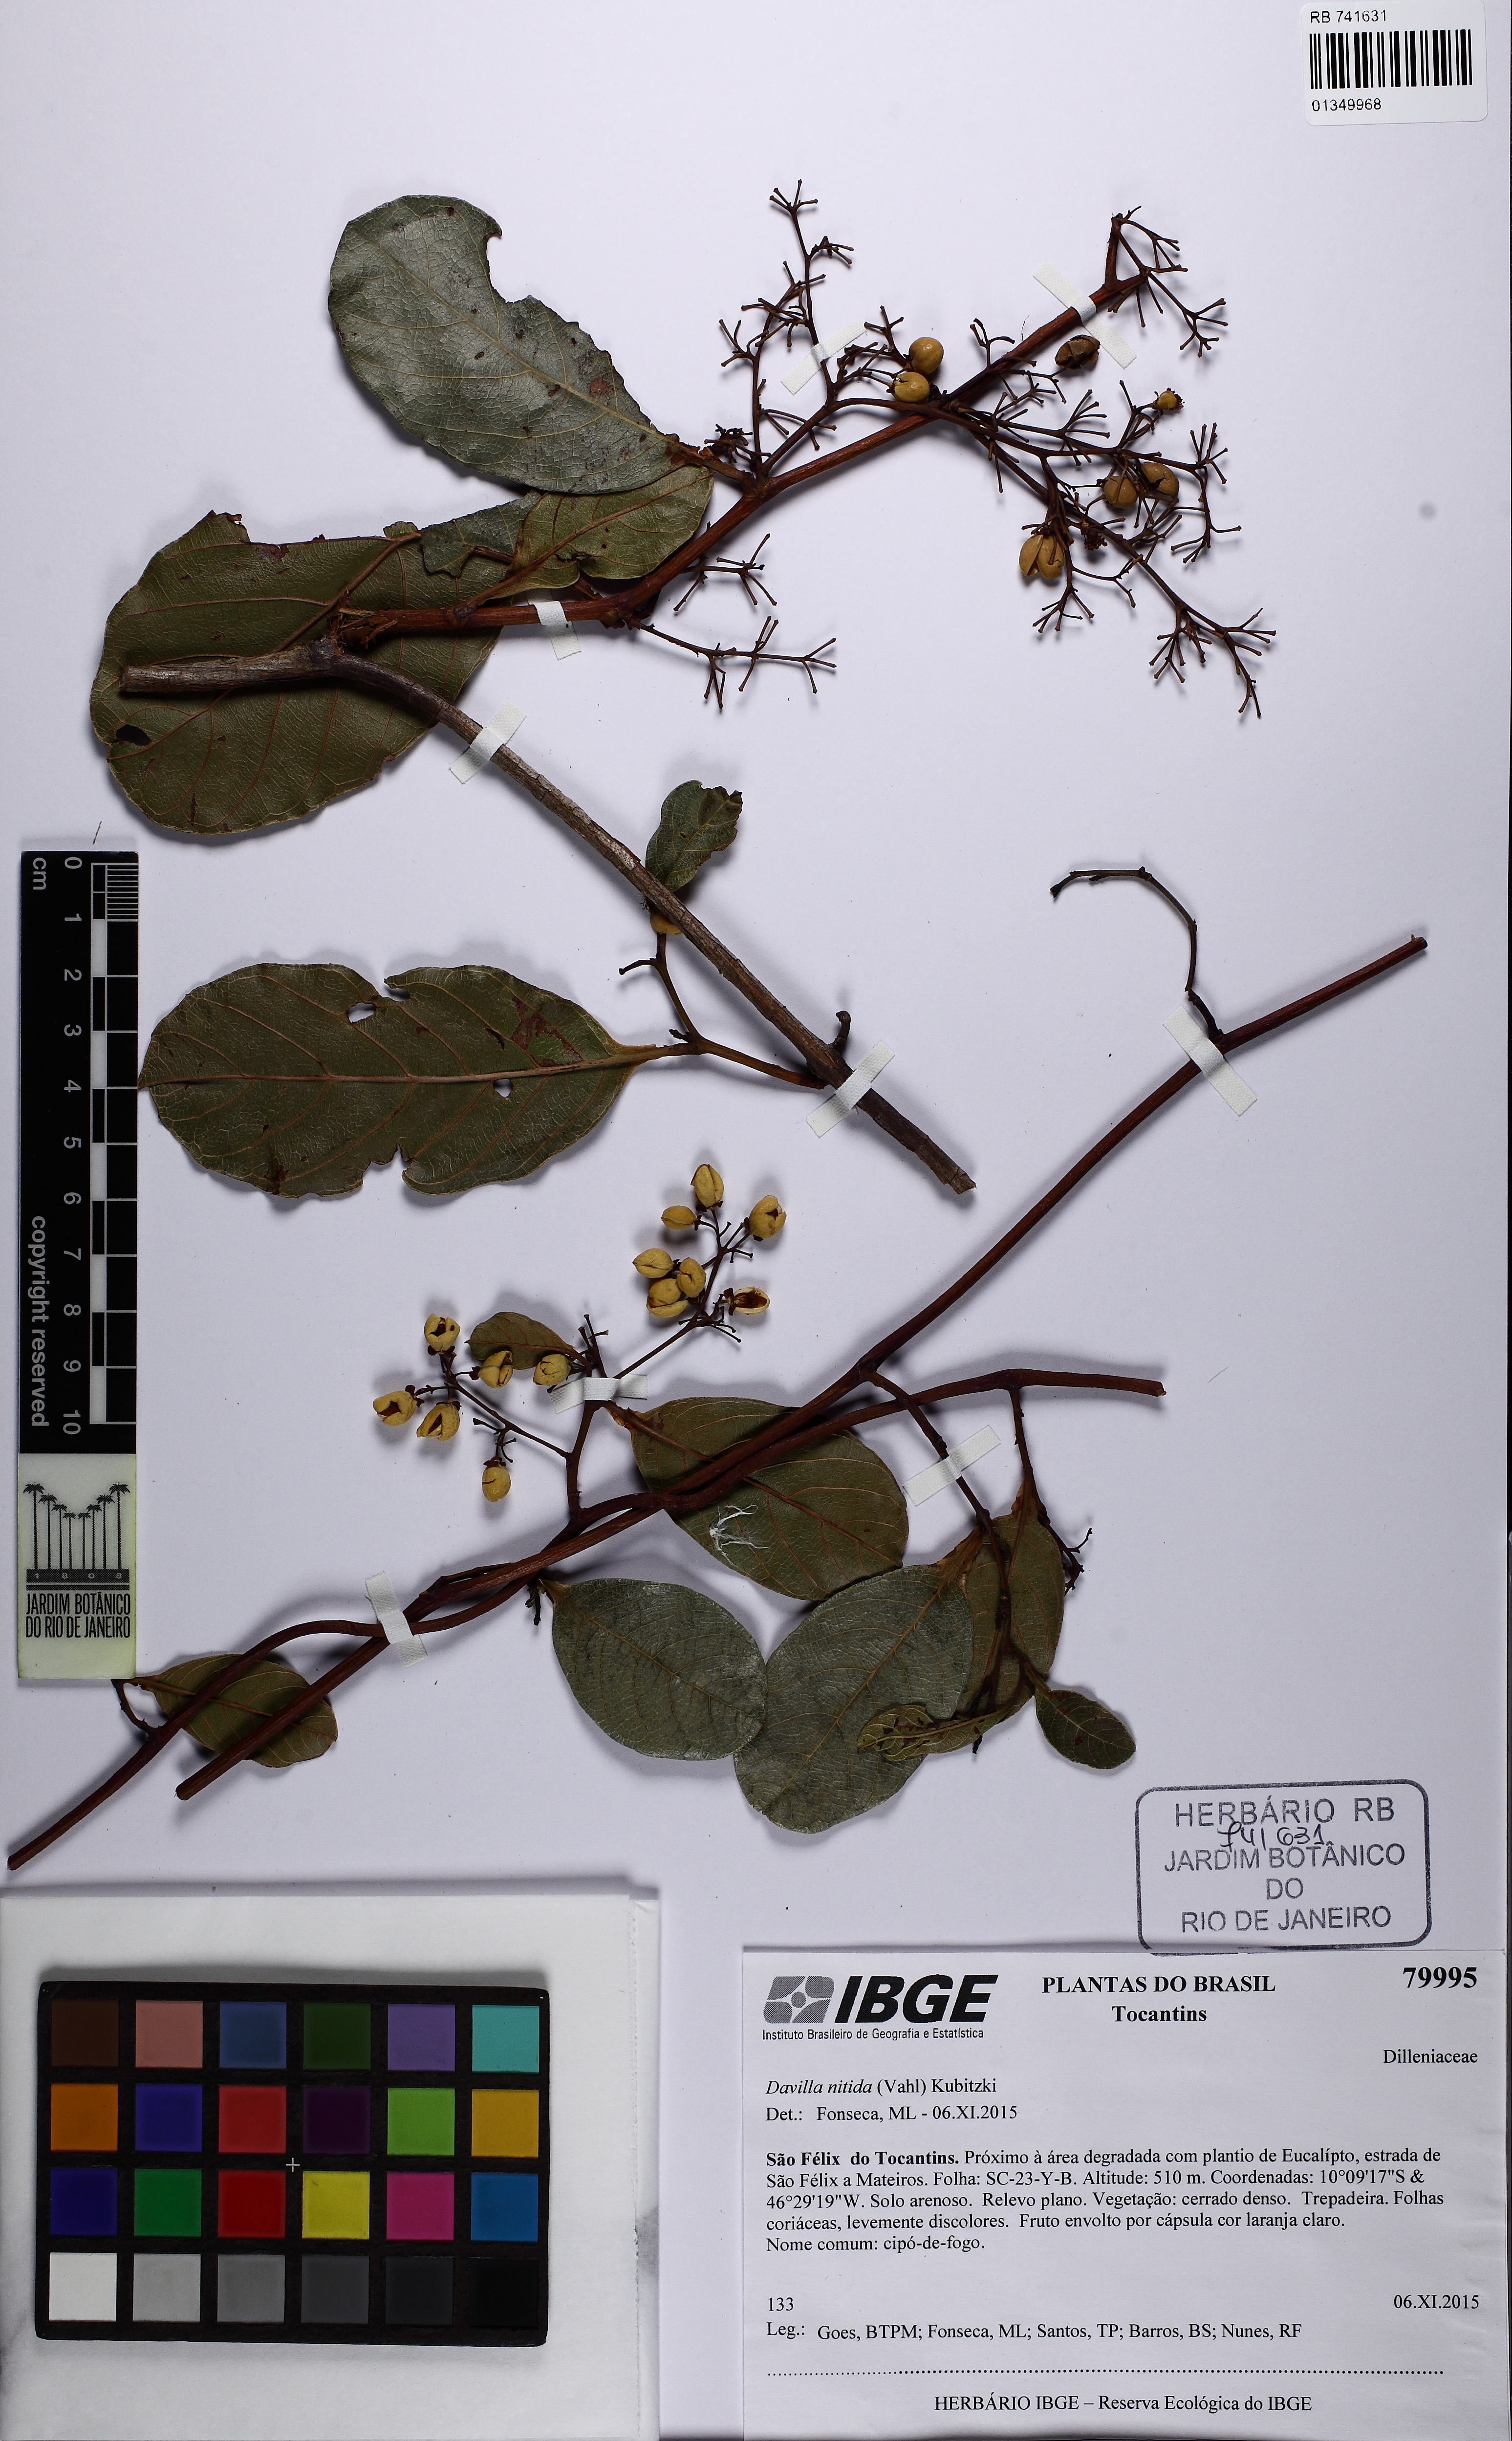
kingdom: Plantae
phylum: Tracheophyta
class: Magnoliopsida
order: Dilleniales
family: Dilleniaceae
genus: Davilla
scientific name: Davilla nitida
